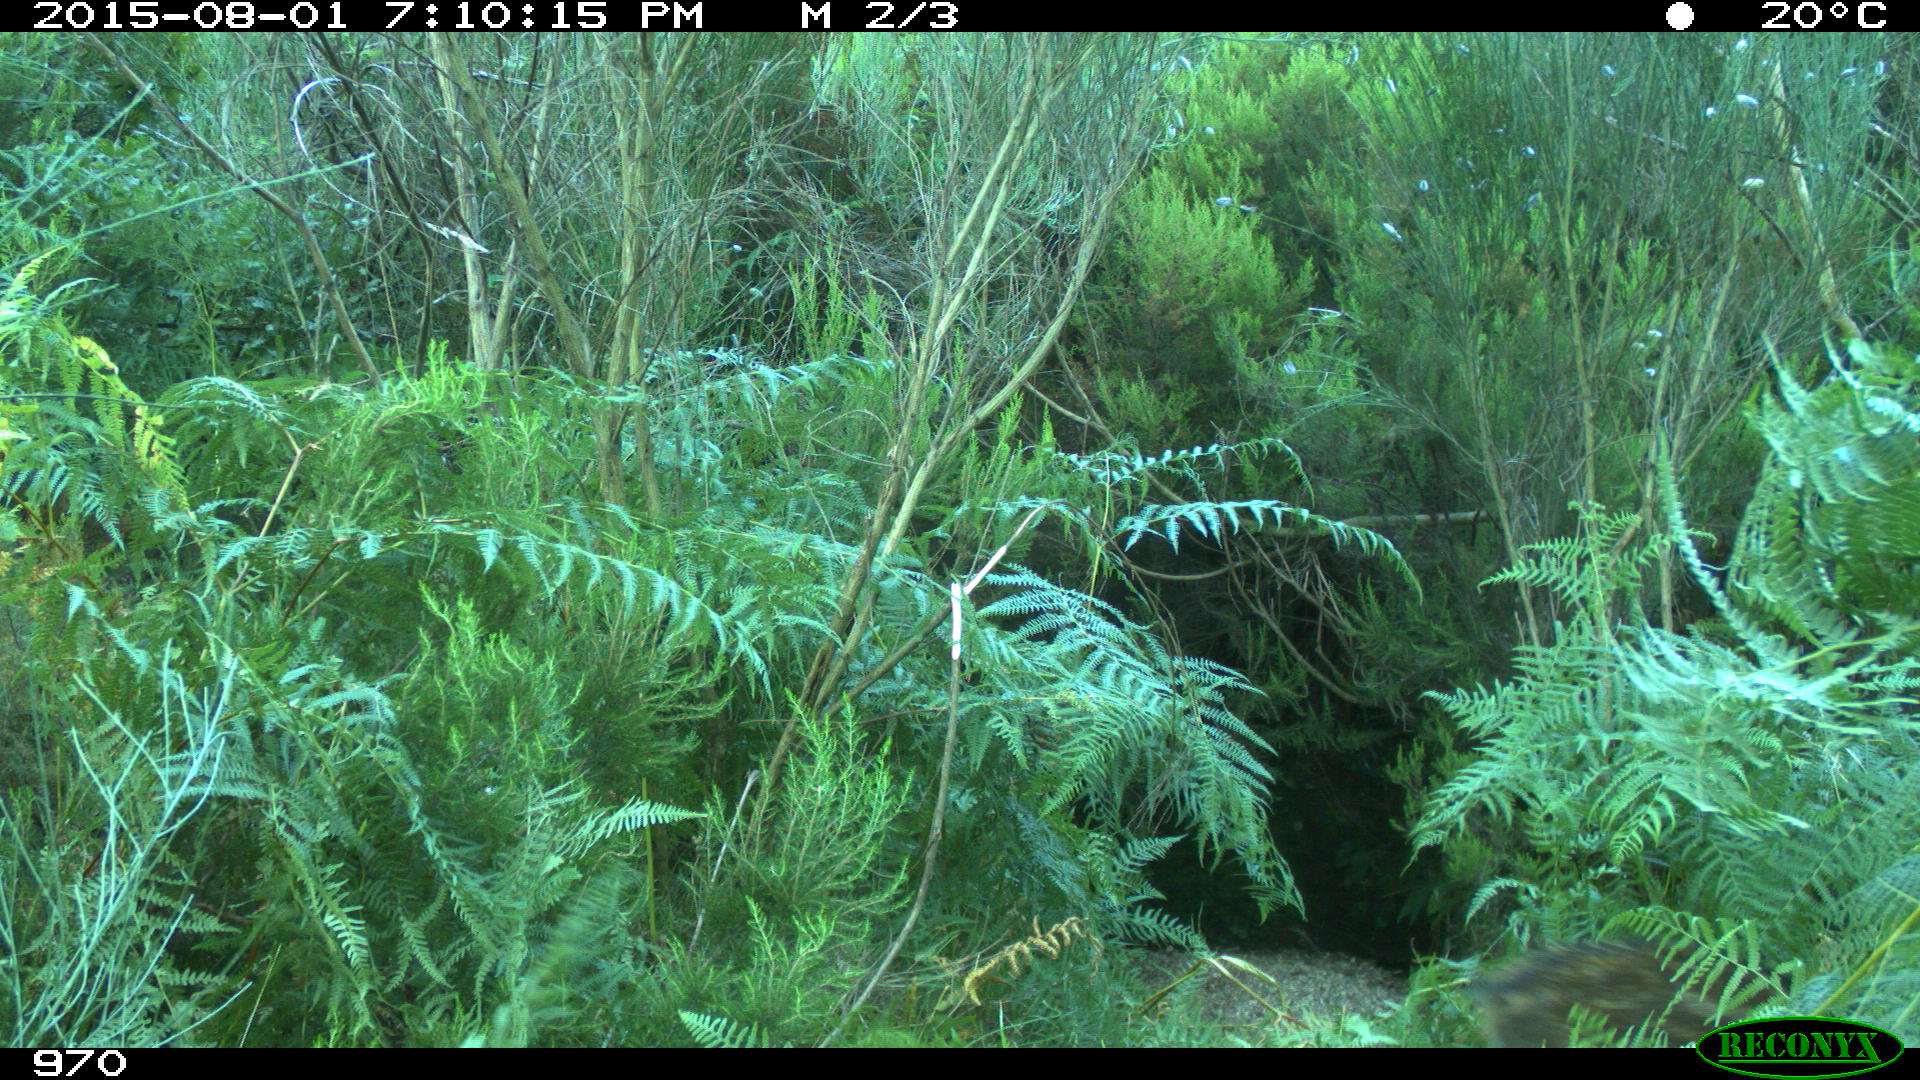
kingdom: Animalia
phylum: Chordata
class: Mammalia
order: Artiodactyla
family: Suidae
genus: Sus
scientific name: Sus scrofa
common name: Wild boar
